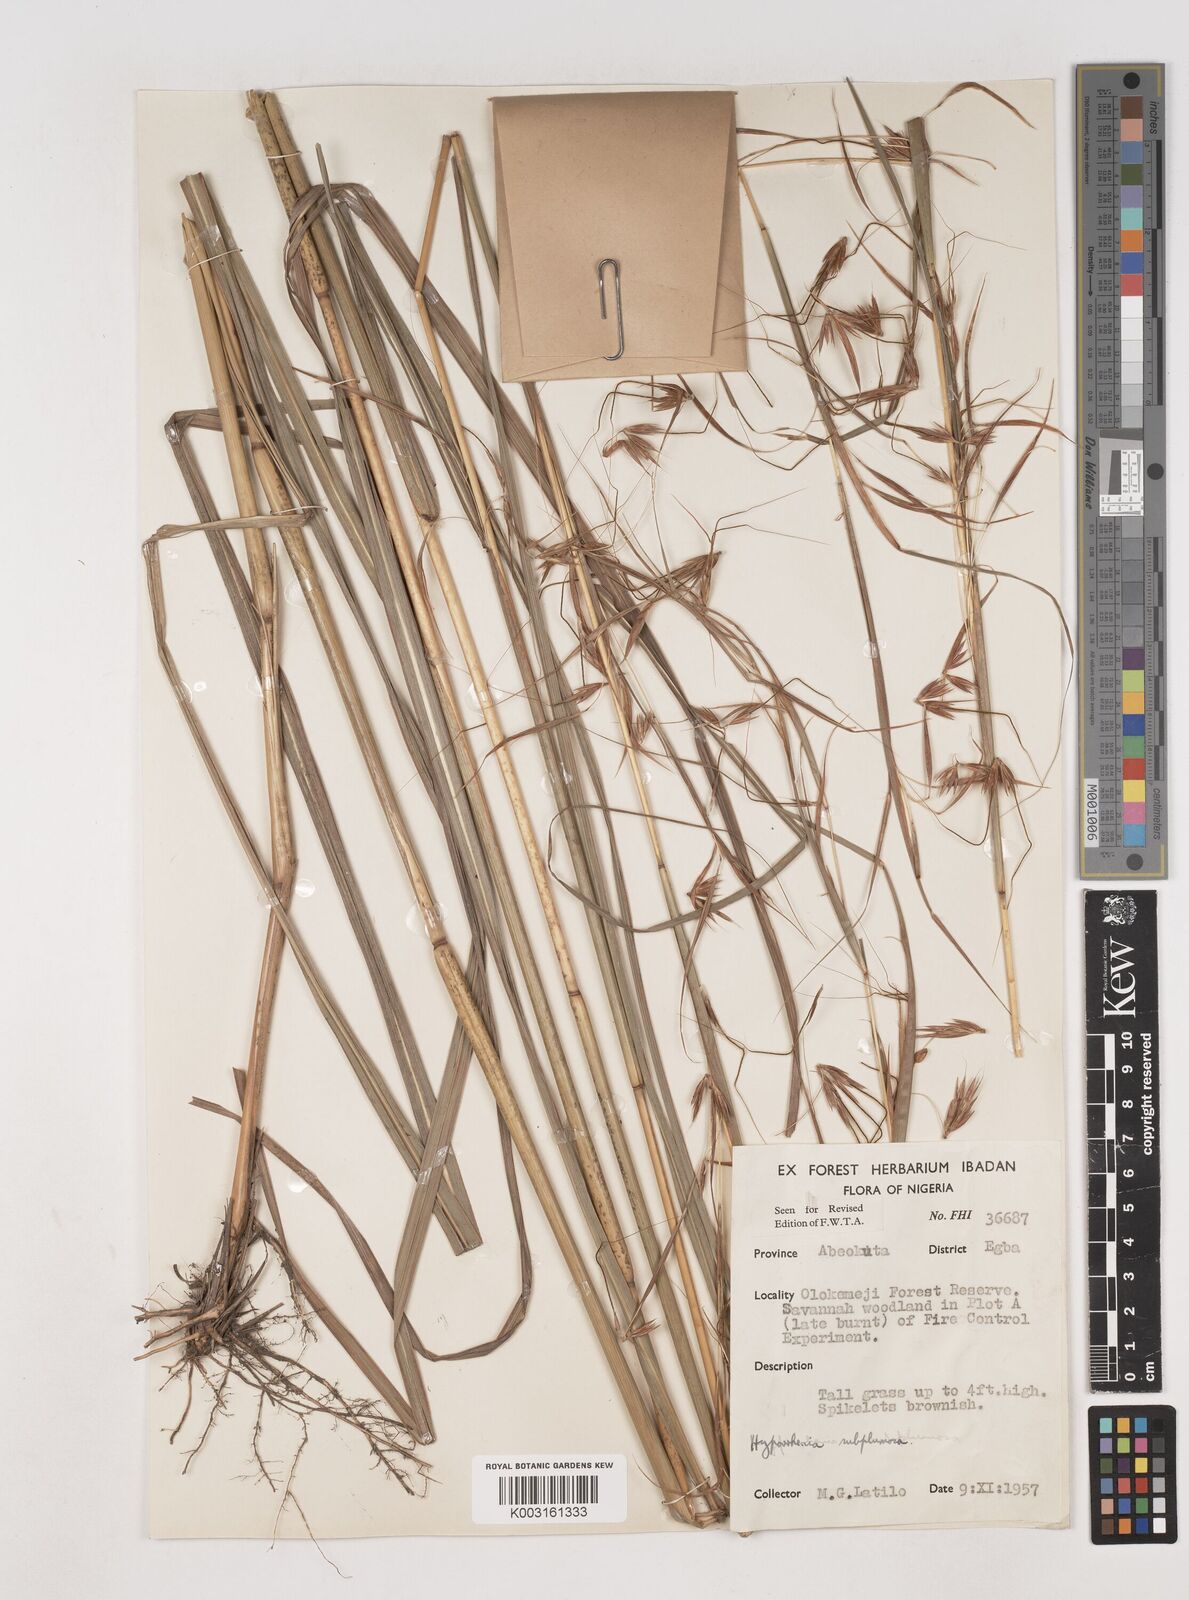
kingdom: Plantae
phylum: Tracheophyta
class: Liliopsida
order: Poales
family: Poaceae
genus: Hyparrhenia
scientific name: Hyparrhenia subplumosa
